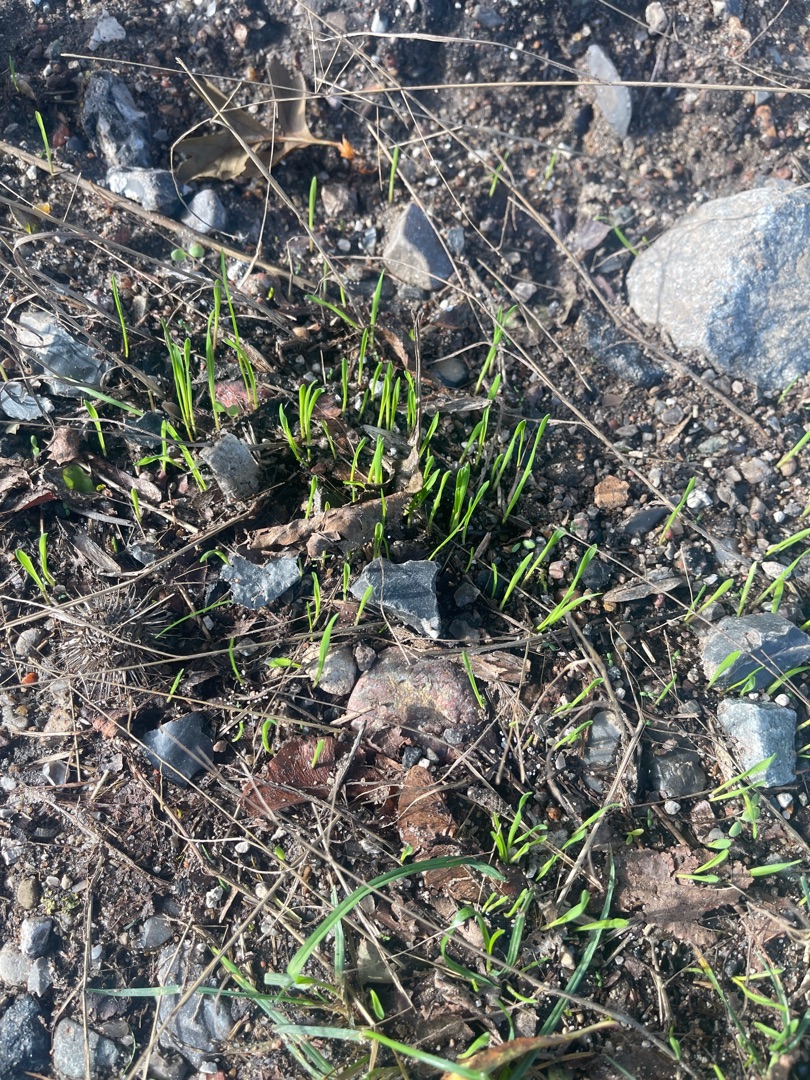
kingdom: Plantae
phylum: Tracheophyta
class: Liliopsida
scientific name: Liliopsida
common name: Enkimbladede
